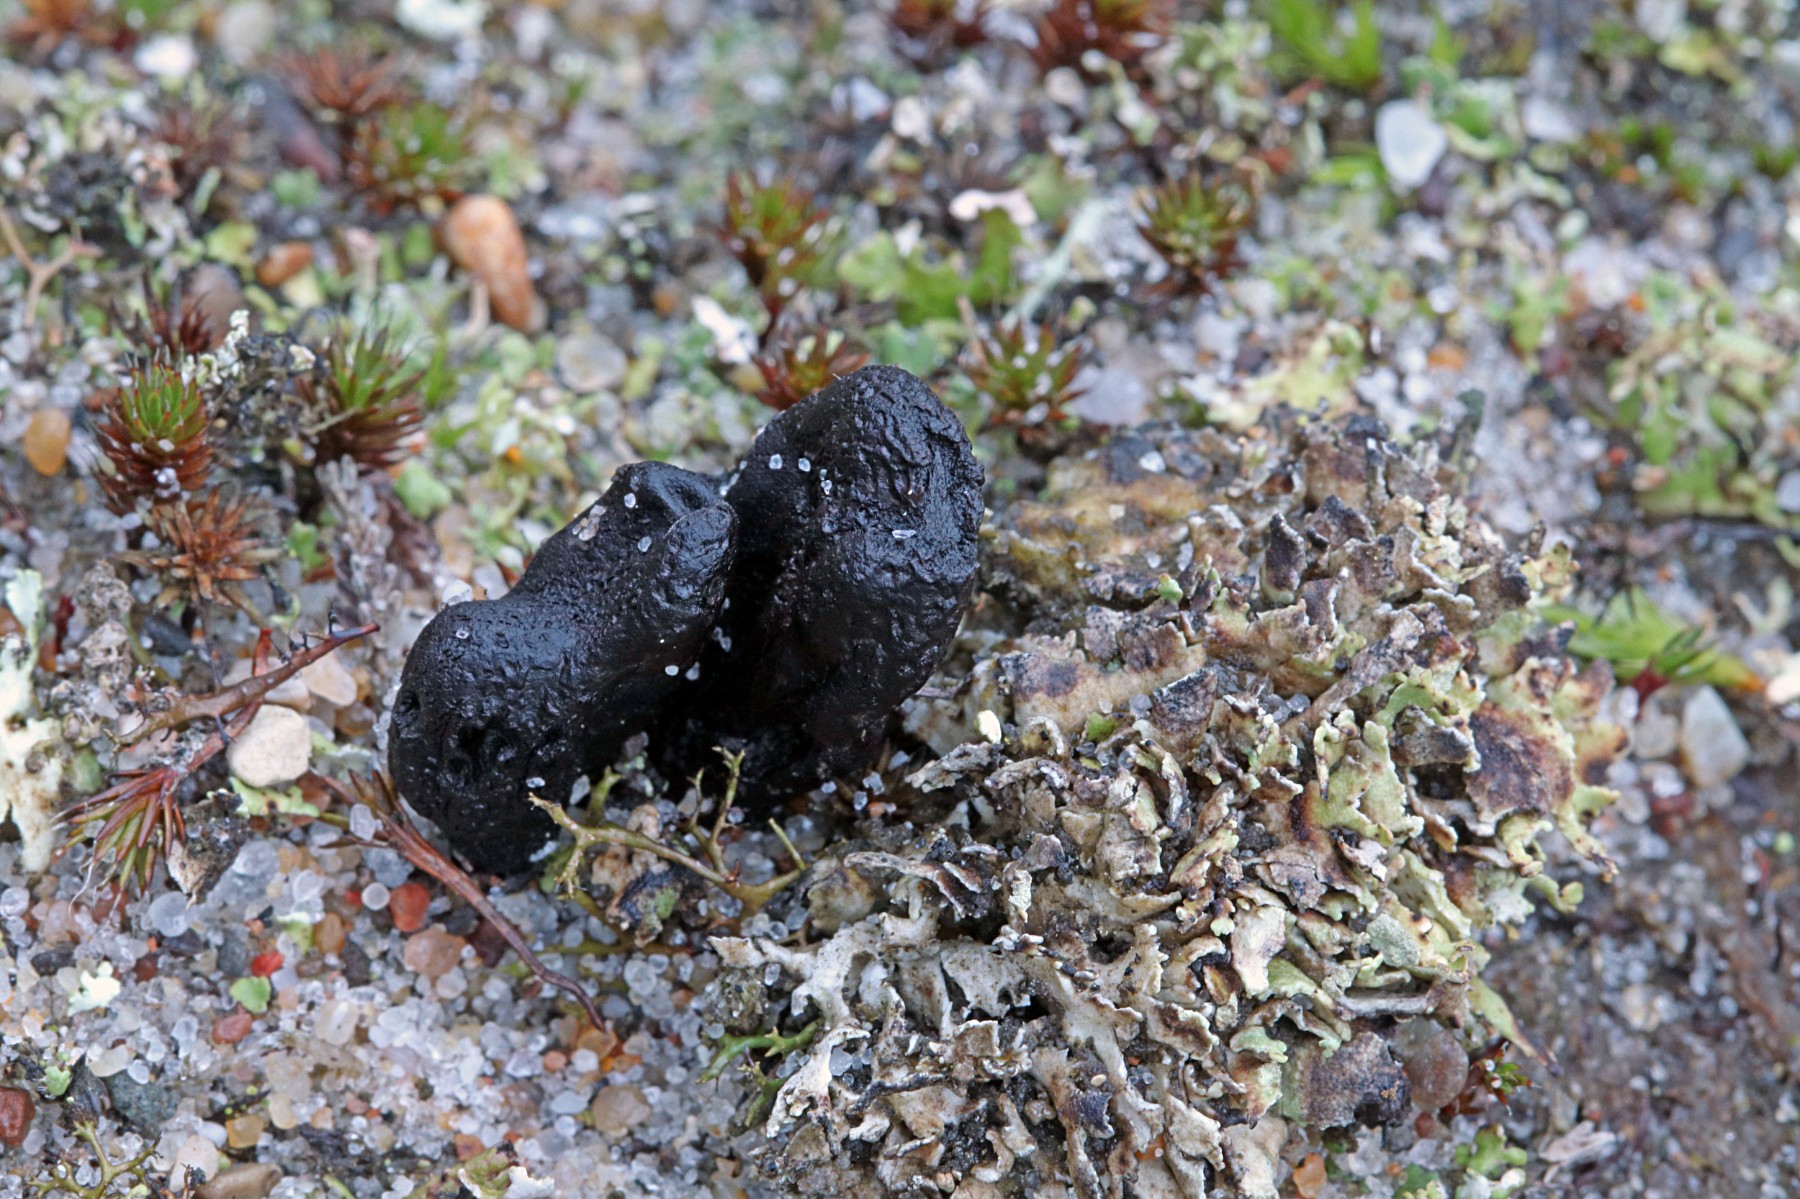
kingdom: Fungi
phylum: Ascomycota
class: Geoglossomycetes
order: Geoglossales
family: Geoglossaceae
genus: Sabuloglossum
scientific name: Sabuloglossum arenarium
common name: klit-jordtunge
